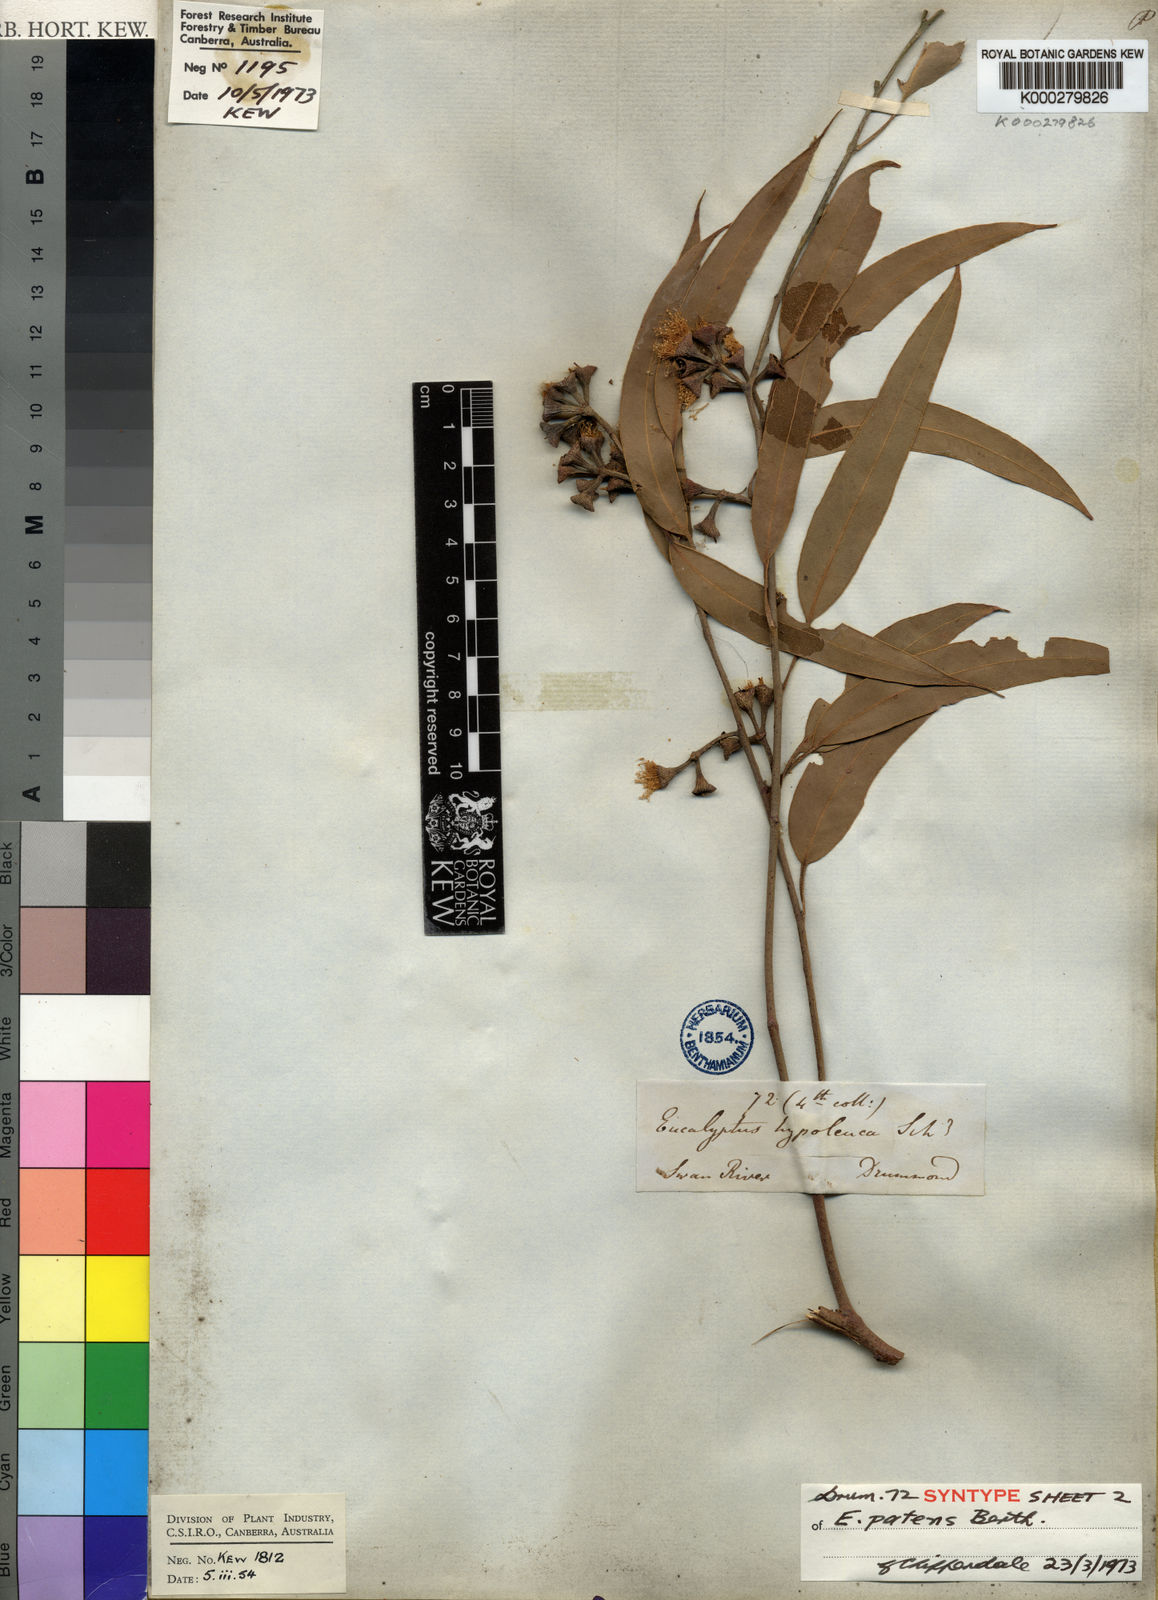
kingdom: Plantae
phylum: Tracheophyta
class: Magnoliopsida
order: Myrtales
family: Myrtaceae
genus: Eucalyptus
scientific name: Eucalyptus patens
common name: Swan river blackbutt
